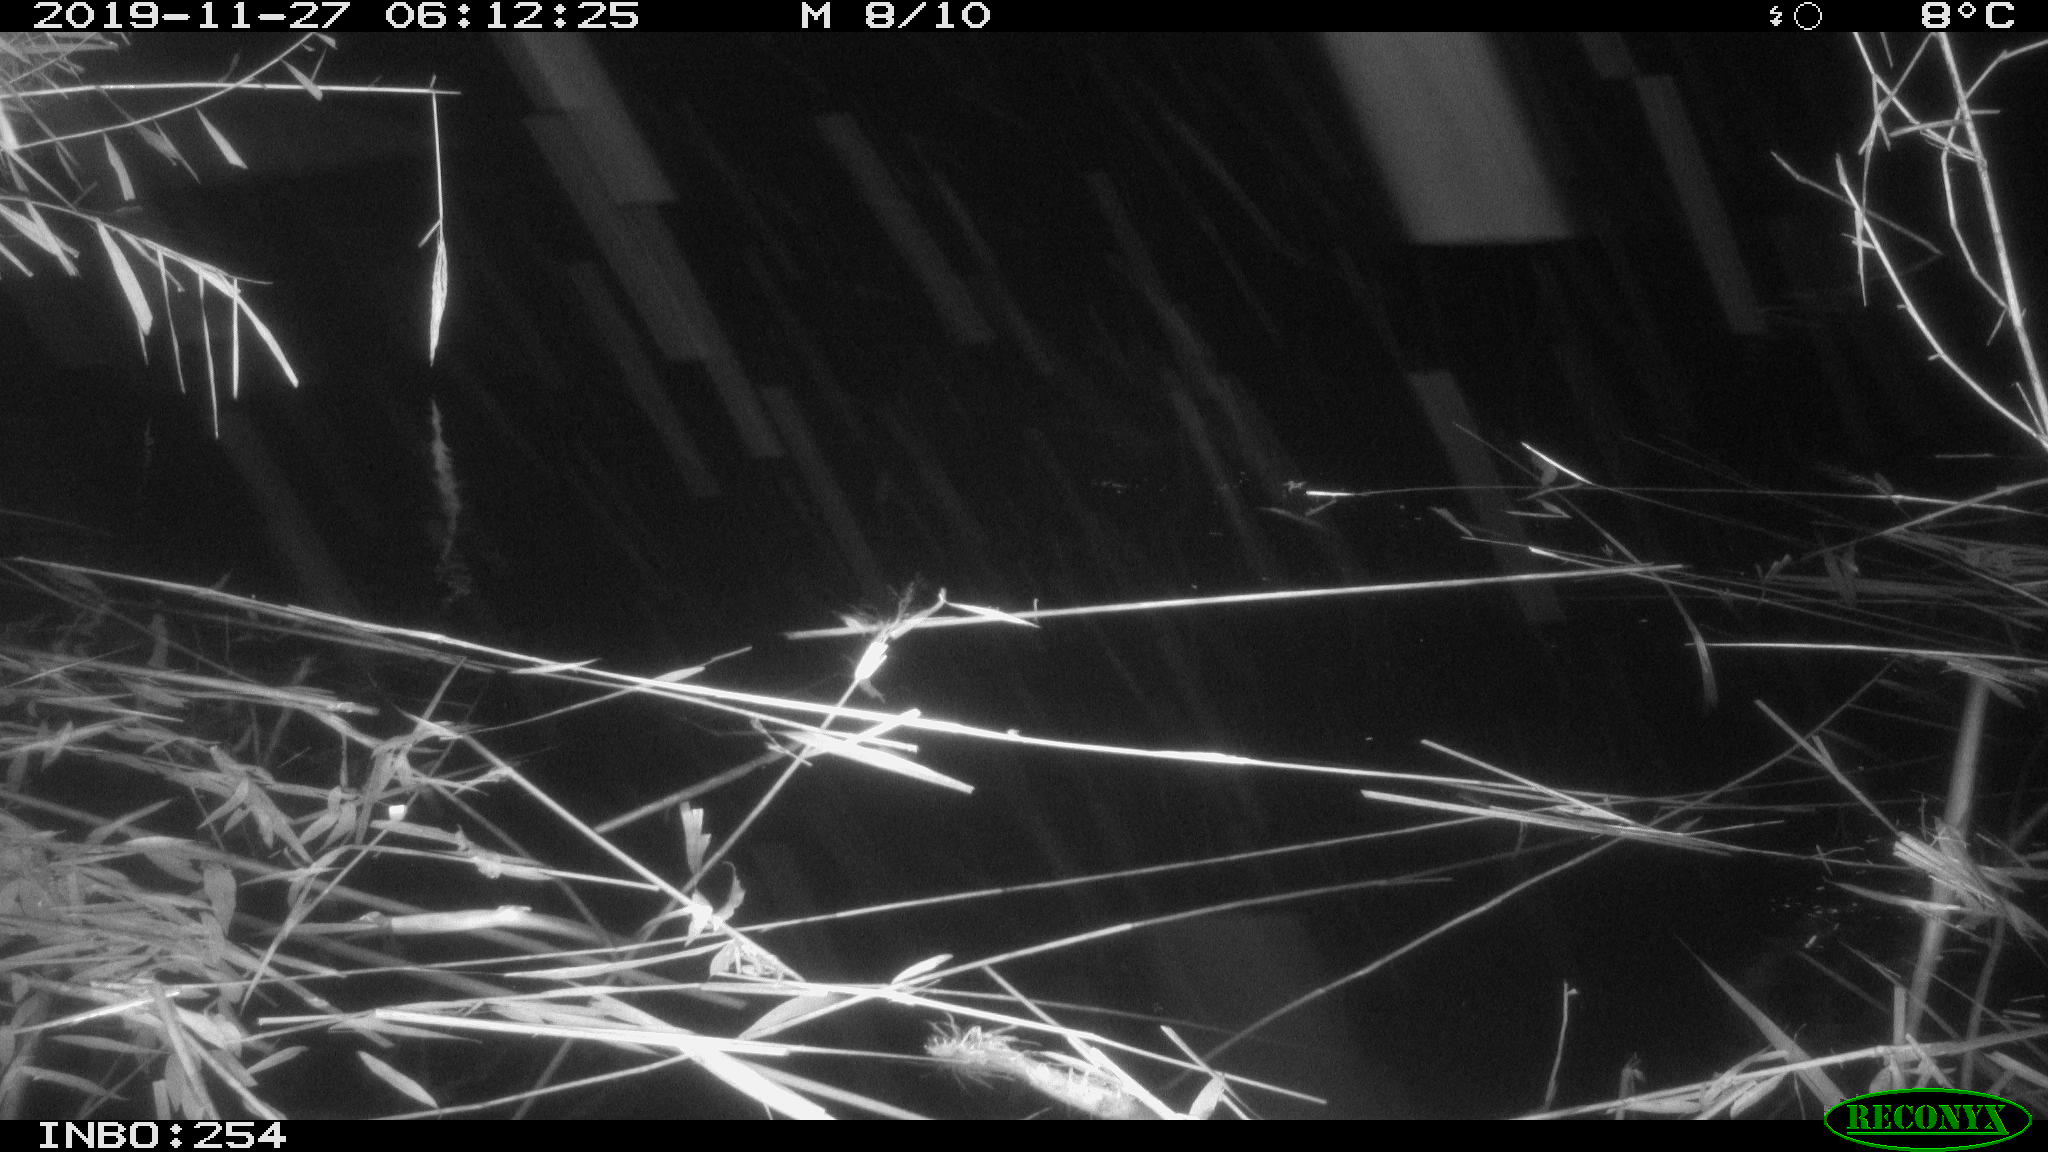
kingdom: Animalia
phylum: Chordata
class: Mammalia
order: Rodentia
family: Cricetidae
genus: Ondatra
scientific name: Ondatra zibethicus
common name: Muskrat
